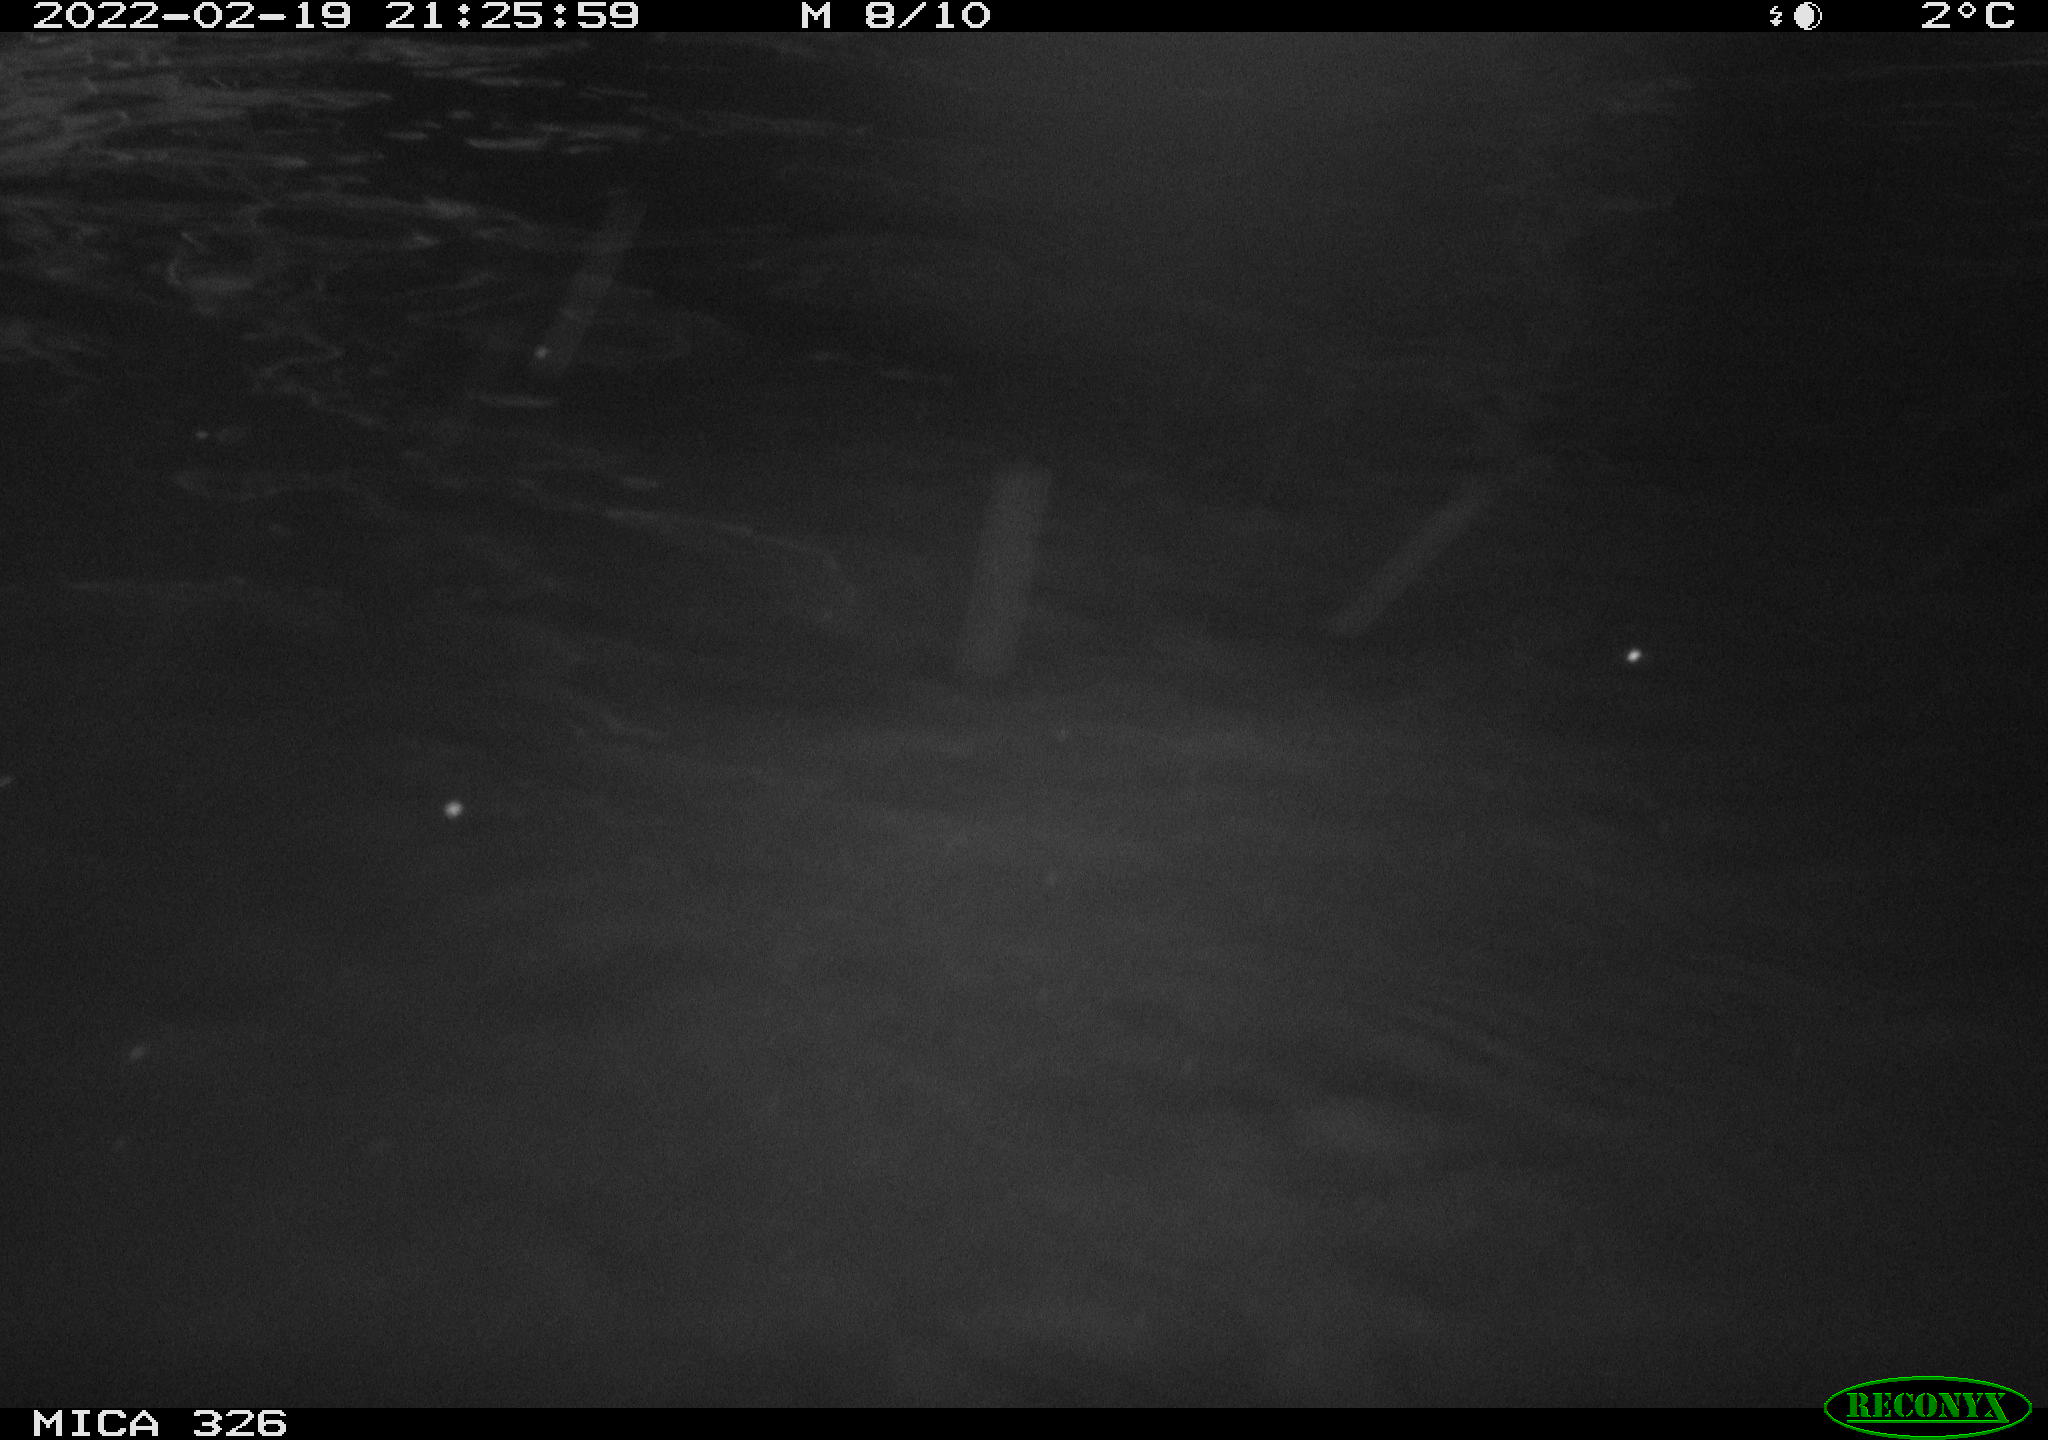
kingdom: Animalia
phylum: Chordata
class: Mammalia
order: Rodentia
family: Cricetidae
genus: Ondatra
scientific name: Ondatra zibethicus
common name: Muskrat
